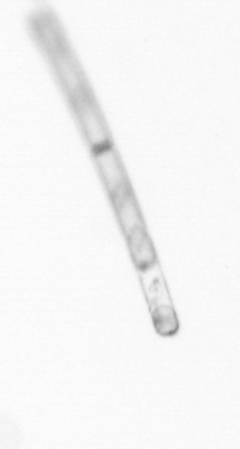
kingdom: Chromista
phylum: Ochrophyta
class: Bacillariophyceae
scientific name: Bacillariophyceae
